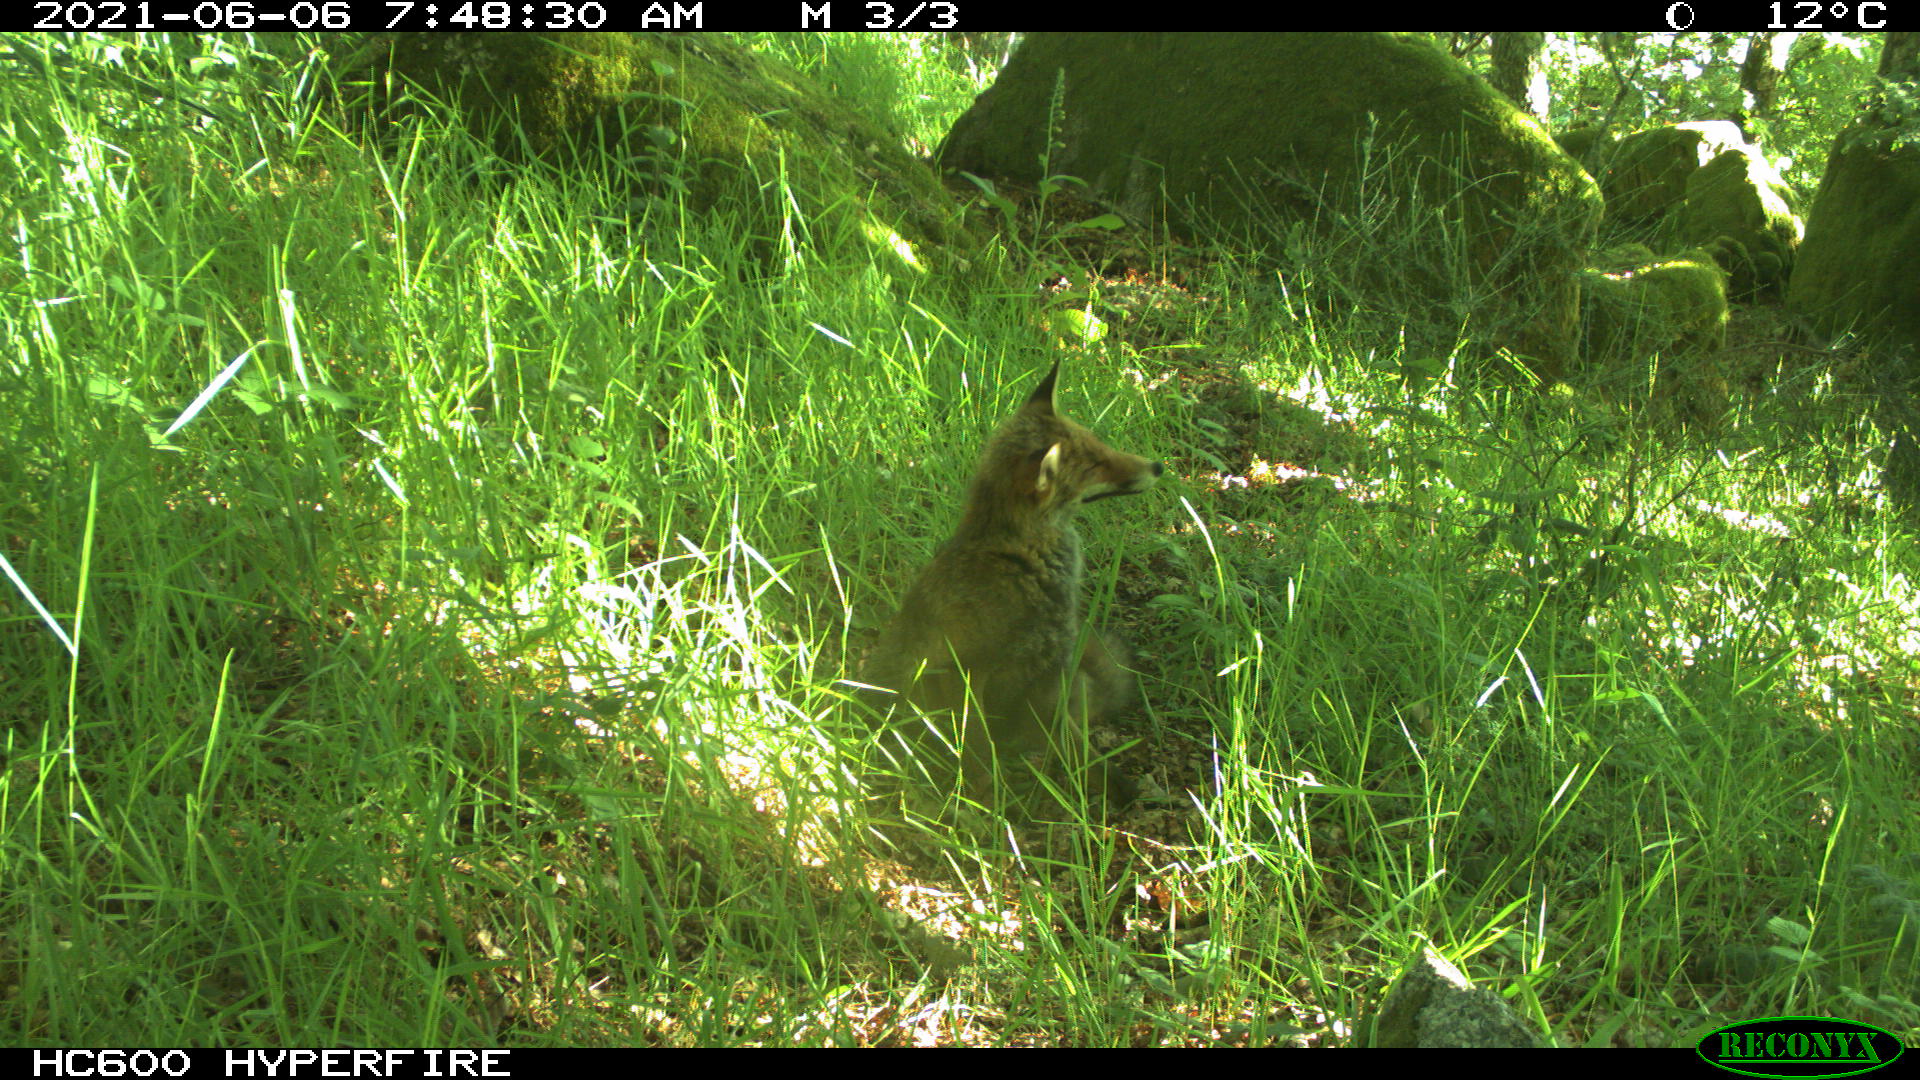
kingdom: Animalia
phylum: Chordata
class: Mammalia
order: Carnivora
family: Canidae
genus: Vulpes
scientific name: Vulpes vulpes
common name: Red fox
